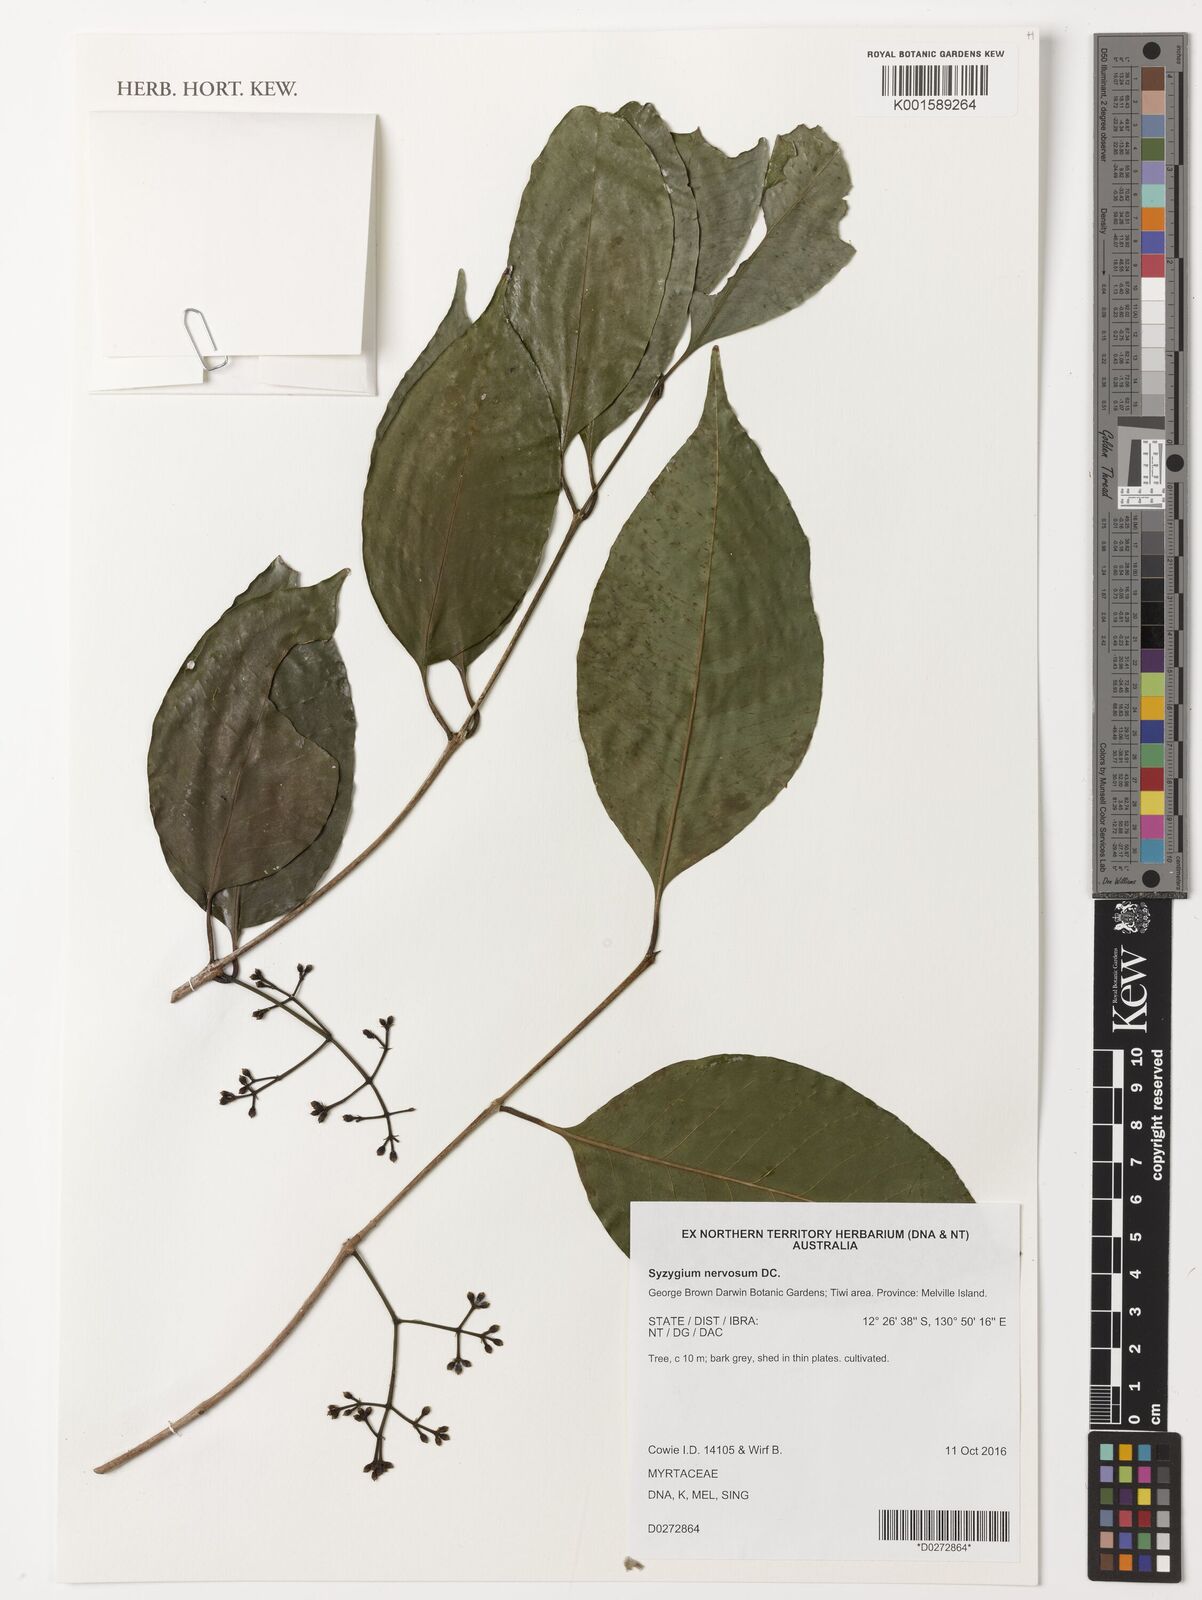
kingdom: Plantae
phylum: Tracheophyta
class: Magnoliopsida
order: Myrtales
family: Myrtaceae
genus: Syzygium
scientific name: Syzygium nervosum
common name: Daly river satinash
